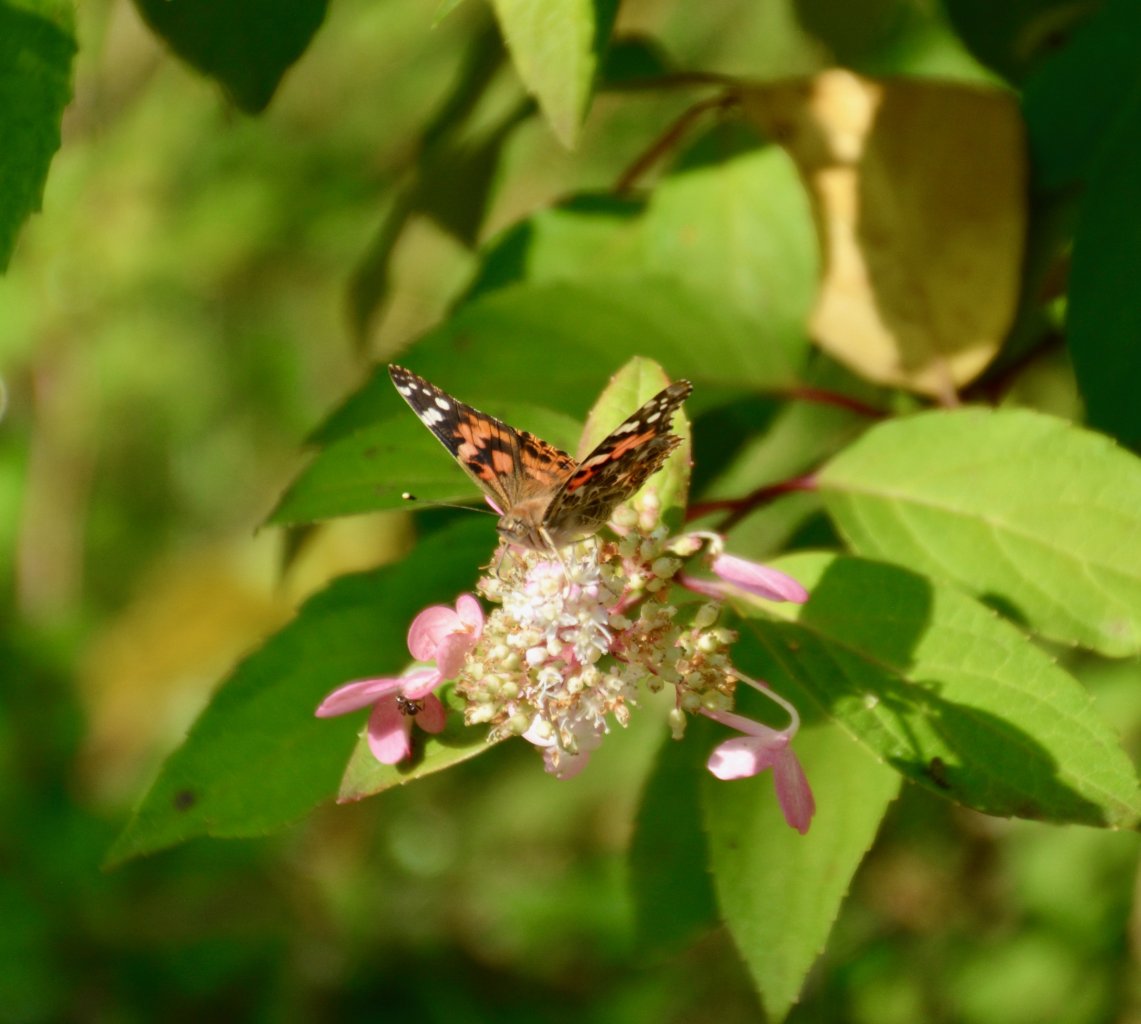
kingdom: Animalia
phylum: Arthropoda
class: Insecta
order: Lepidoptera
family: Nymphalidae
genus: Vanessa
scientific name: Vanessa cardui
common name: Painted Lady
